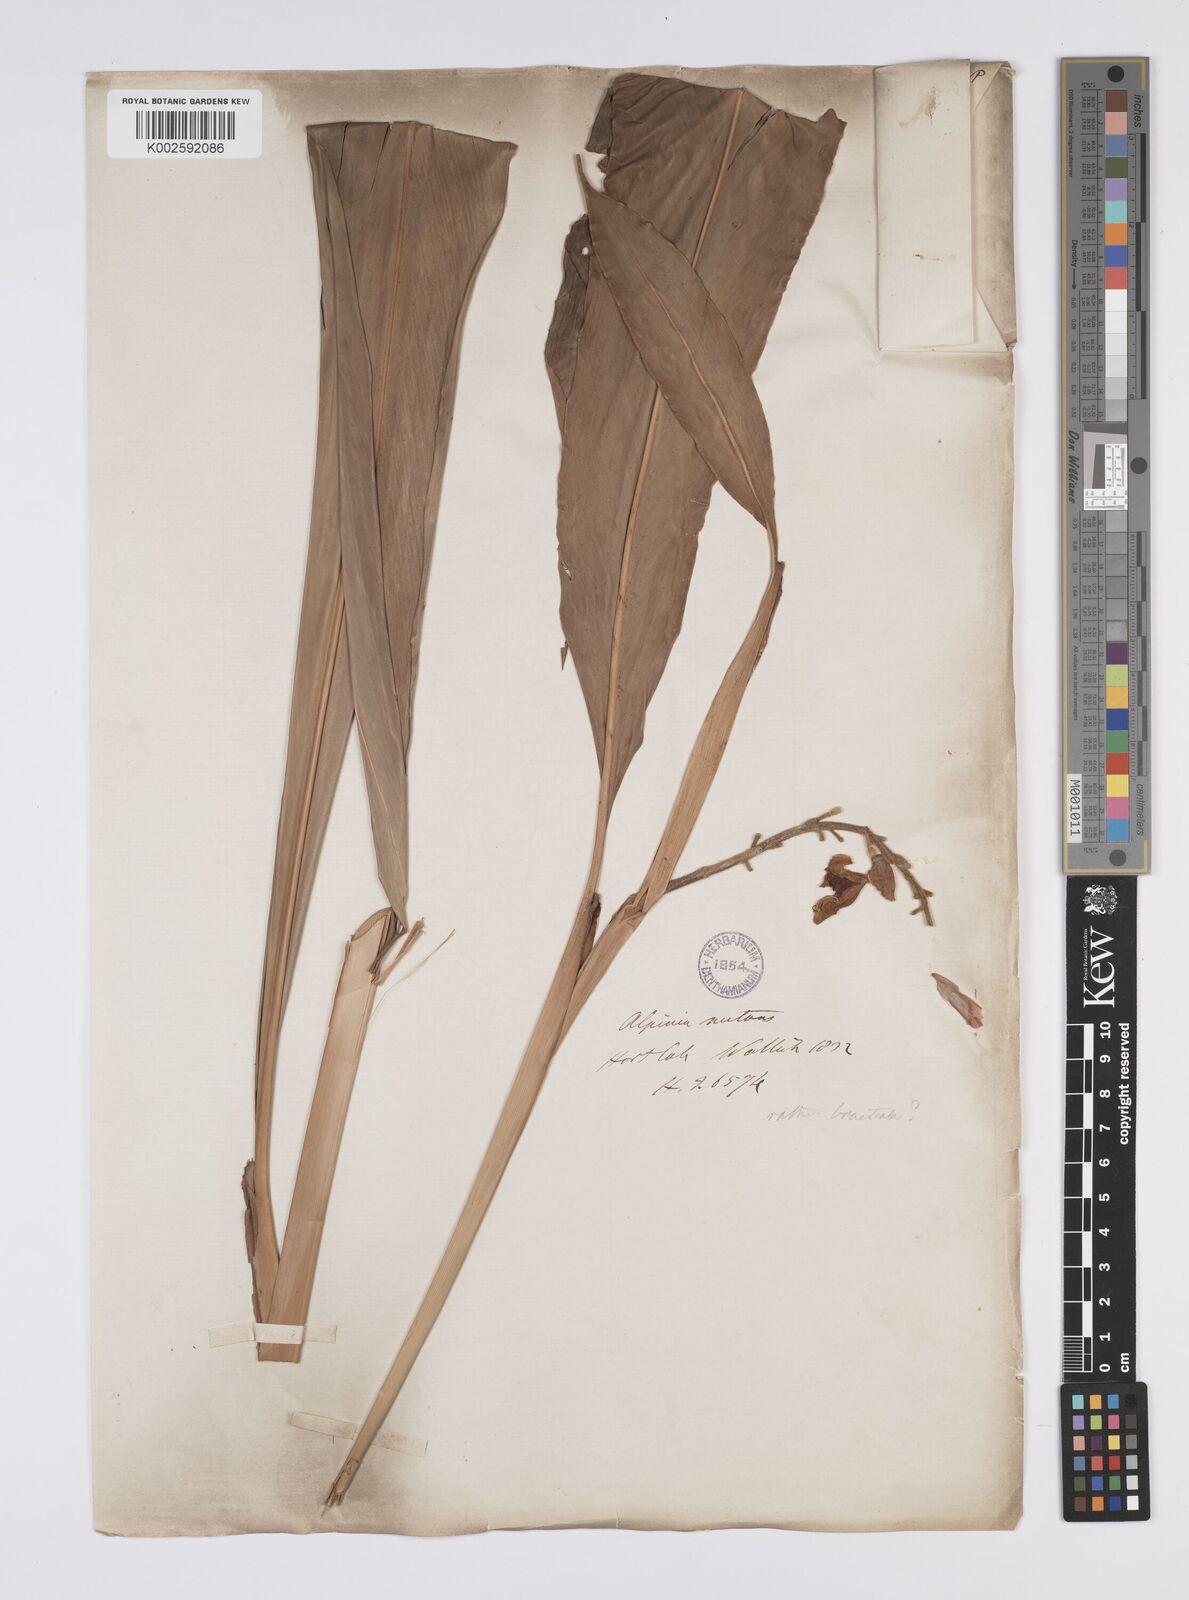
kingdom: Plantae
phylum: Tracheophyta
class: Liliopsida
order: Zingiberales
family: Zingiberaceae
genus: Alpinia
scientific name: Alpinia roxburghii
